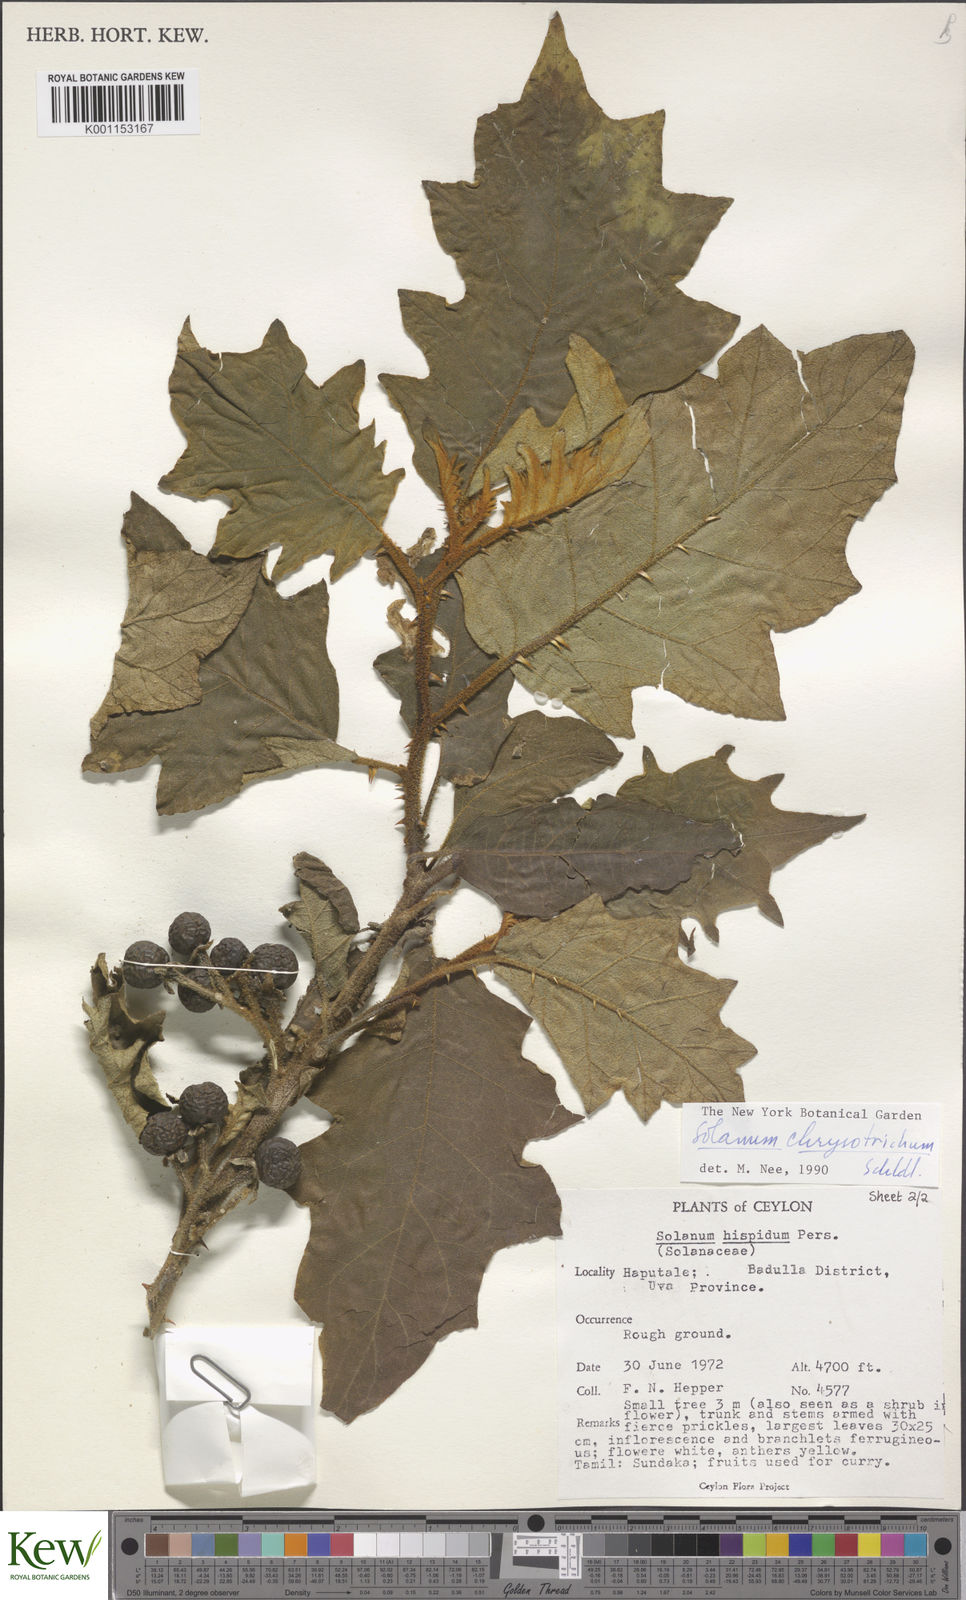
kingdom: Plantae
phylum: Tracheophyta
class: Magnoliopsida
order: Solanales
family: Solanaceae
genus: Solanum
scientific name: Solanum asperolanatum
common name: Devil's-fig
